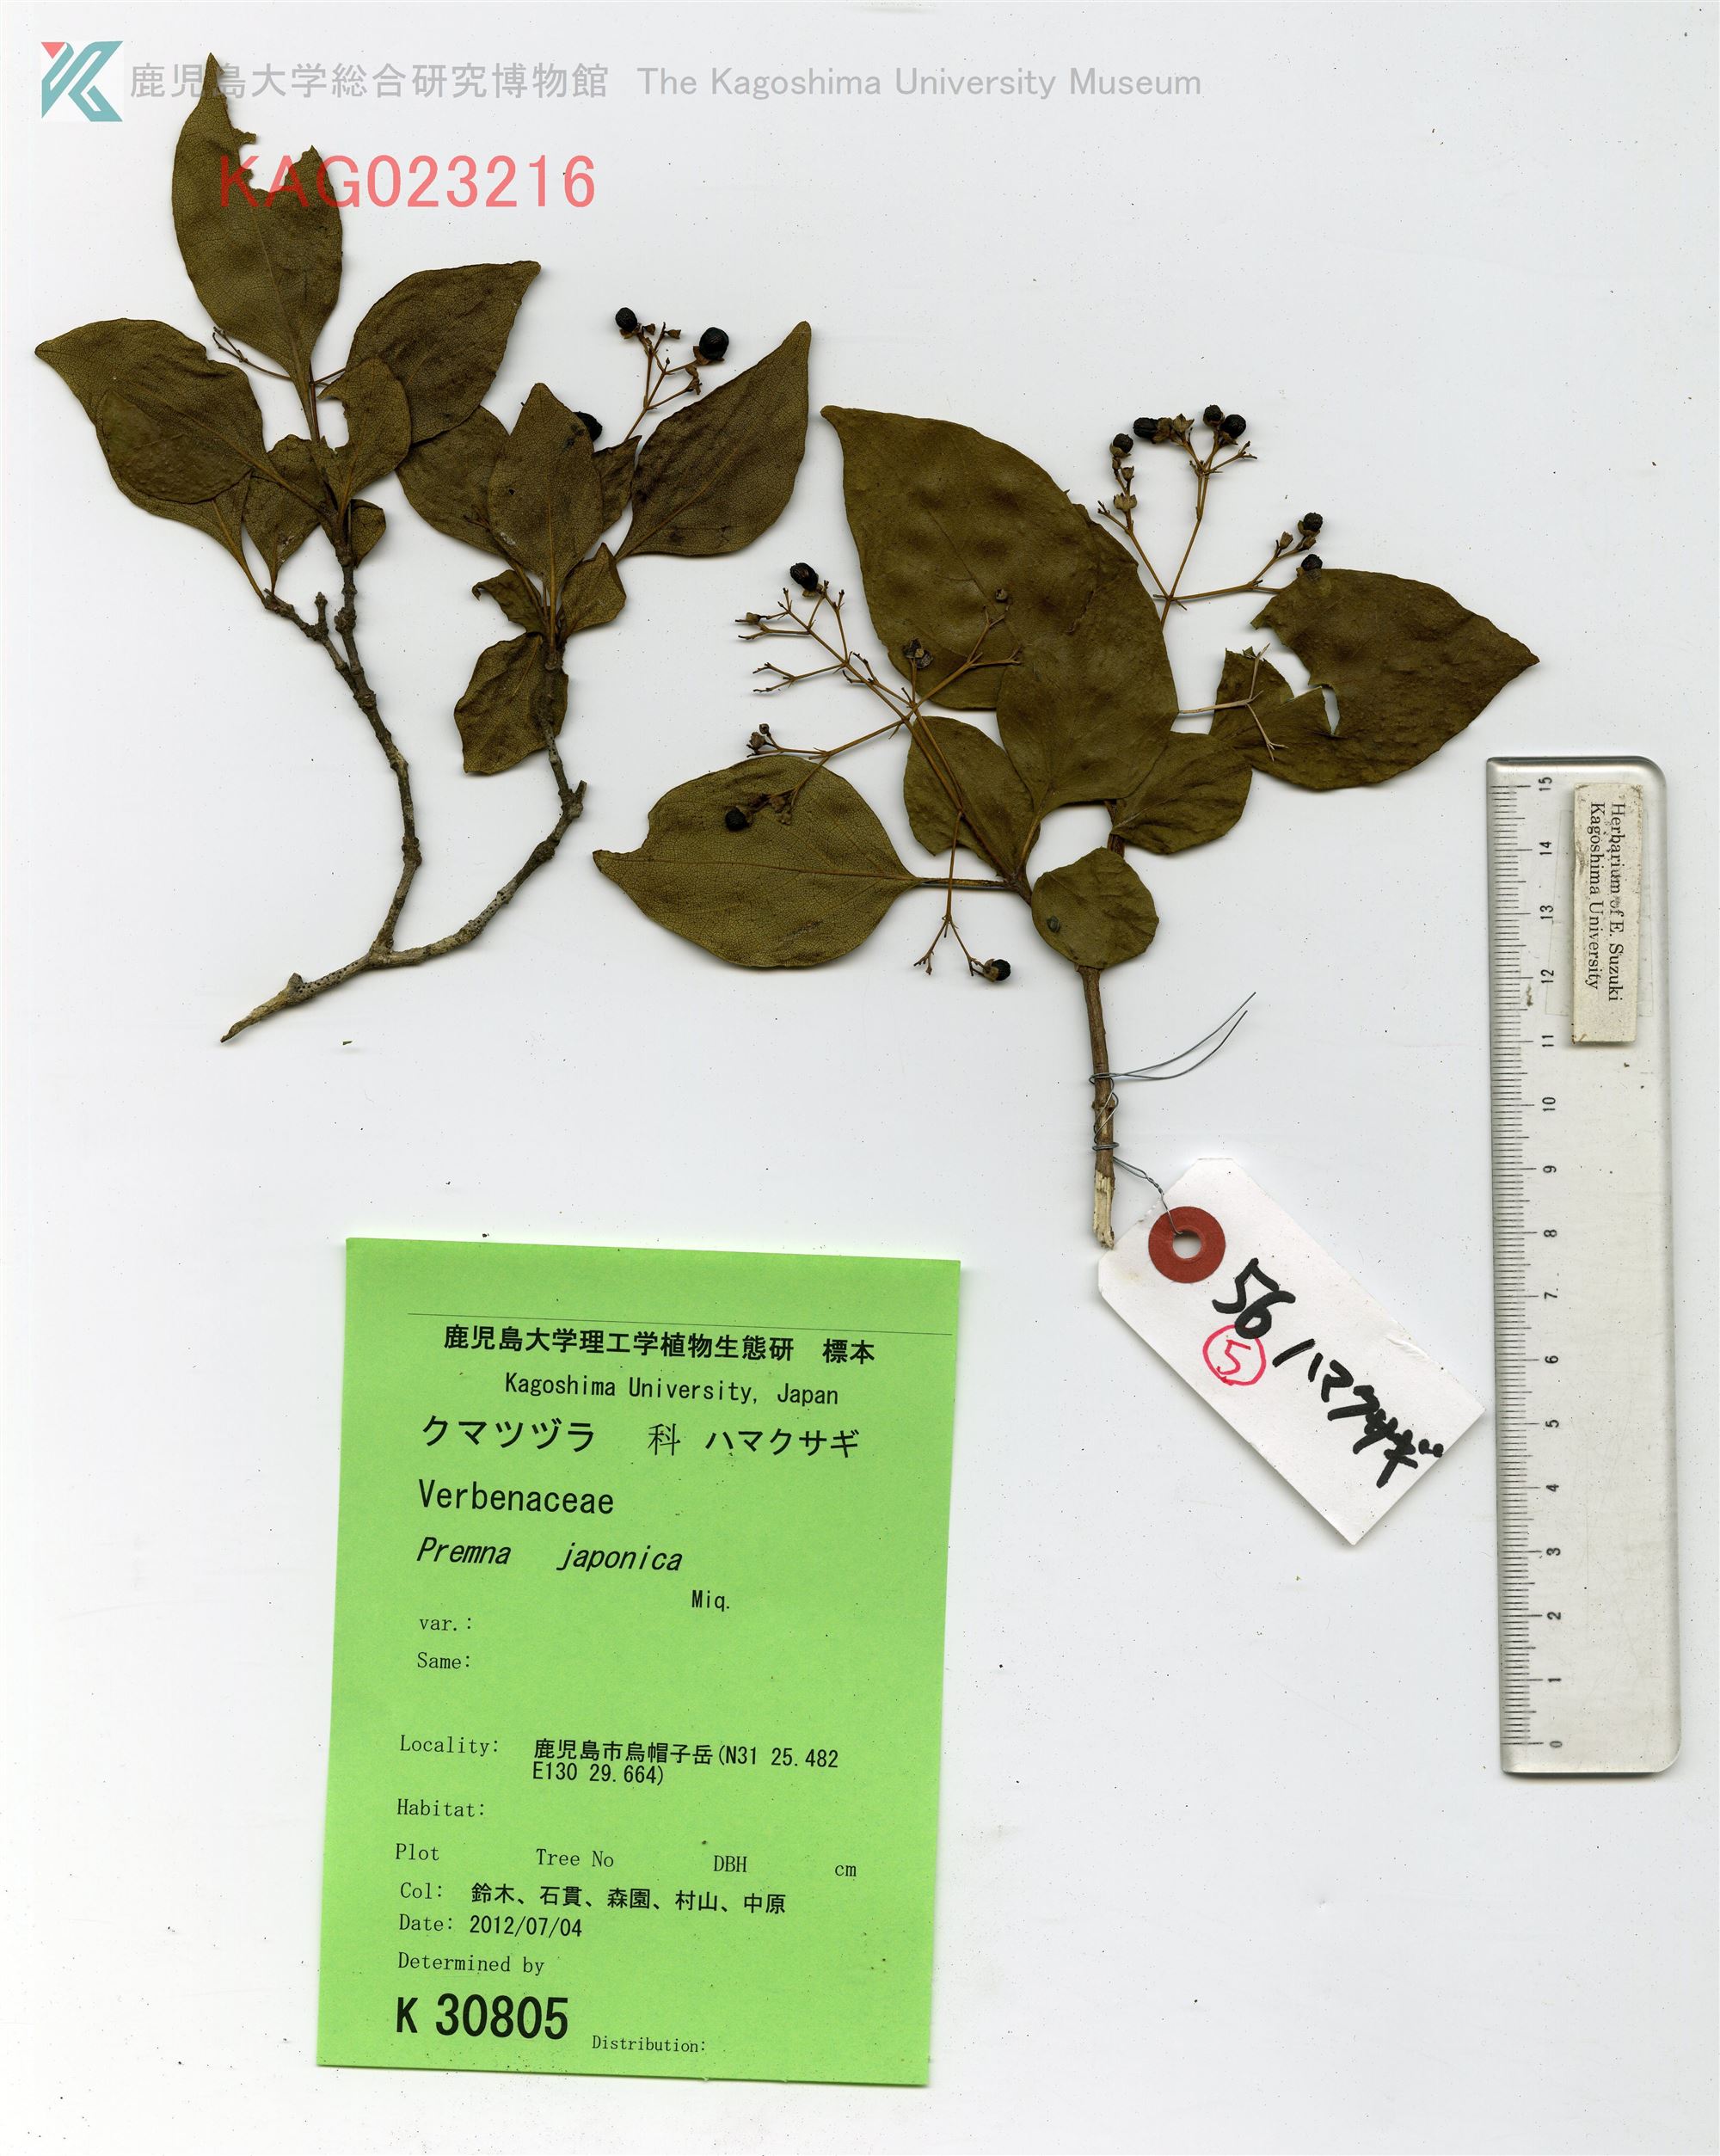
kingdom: Plantae
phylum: Tracheophyta
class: Magnoliopsida
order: Lamiales
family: Lamiaceae
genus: Premna
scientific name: Premna microphylla
